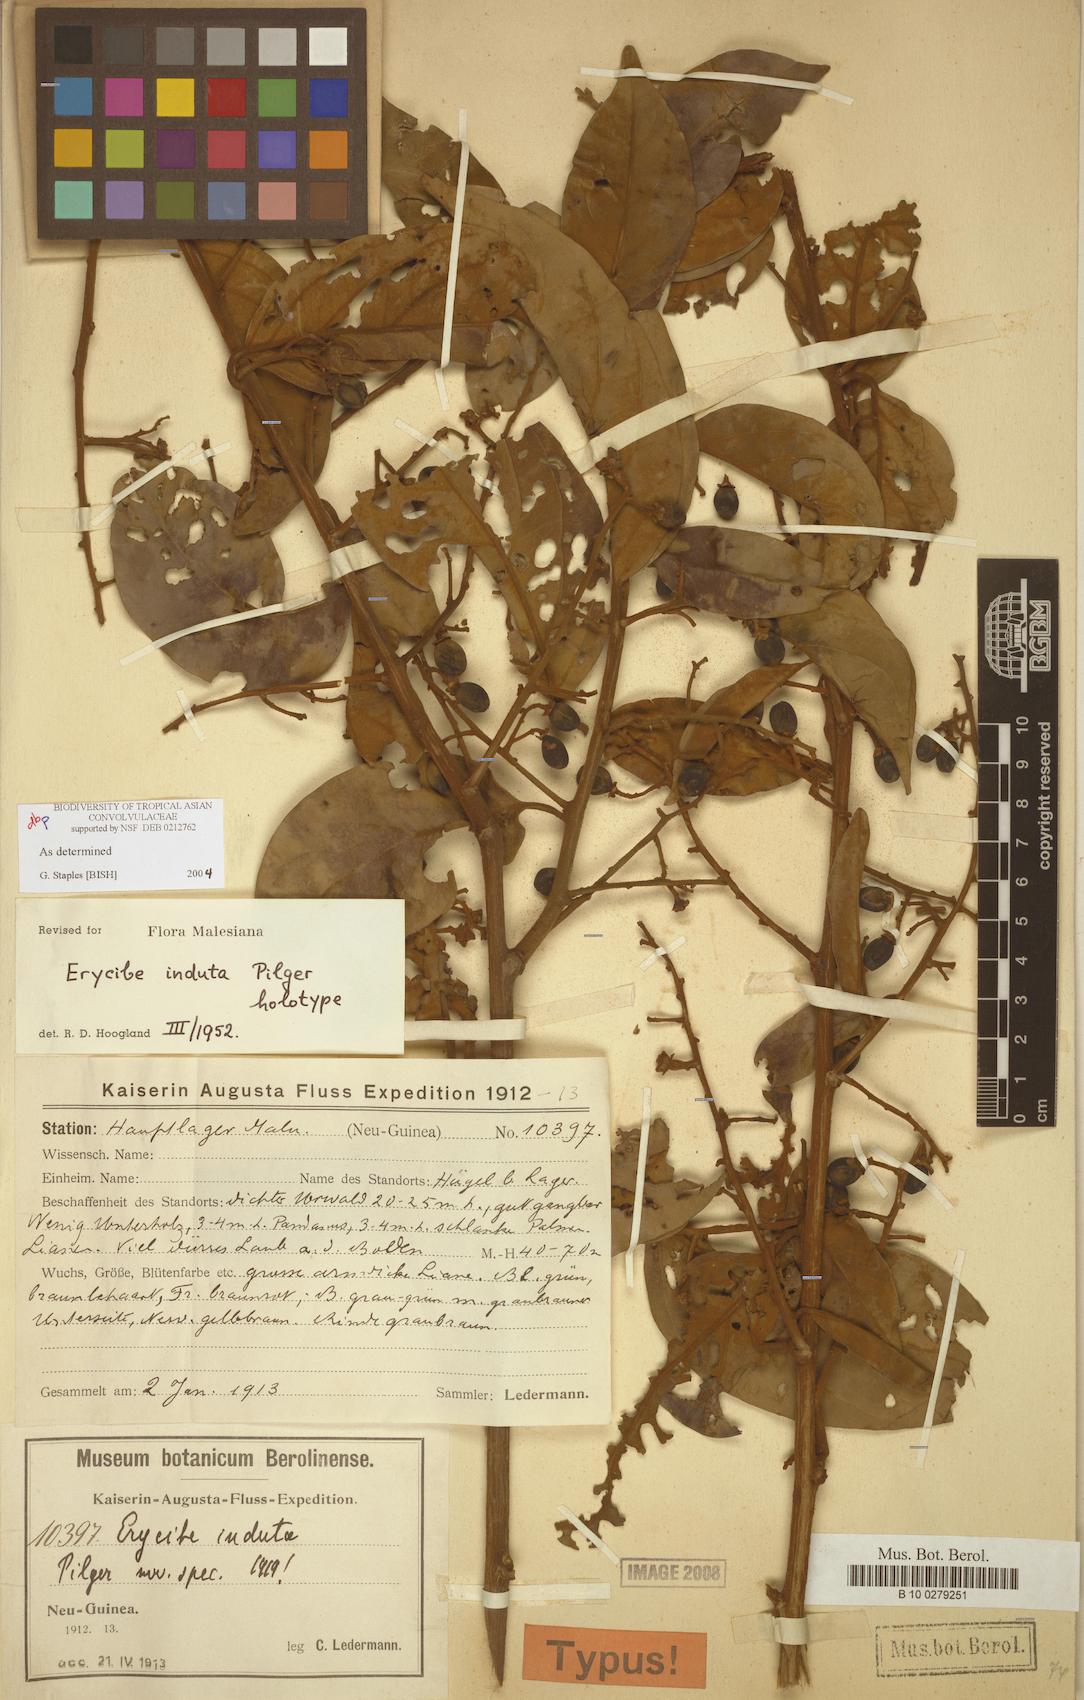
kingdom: Plantae
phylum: Tracheophyta
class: Magnoliopsida
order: Solanales
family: Convolvulaceae
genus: Erycibe
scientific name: Erycibe induta
